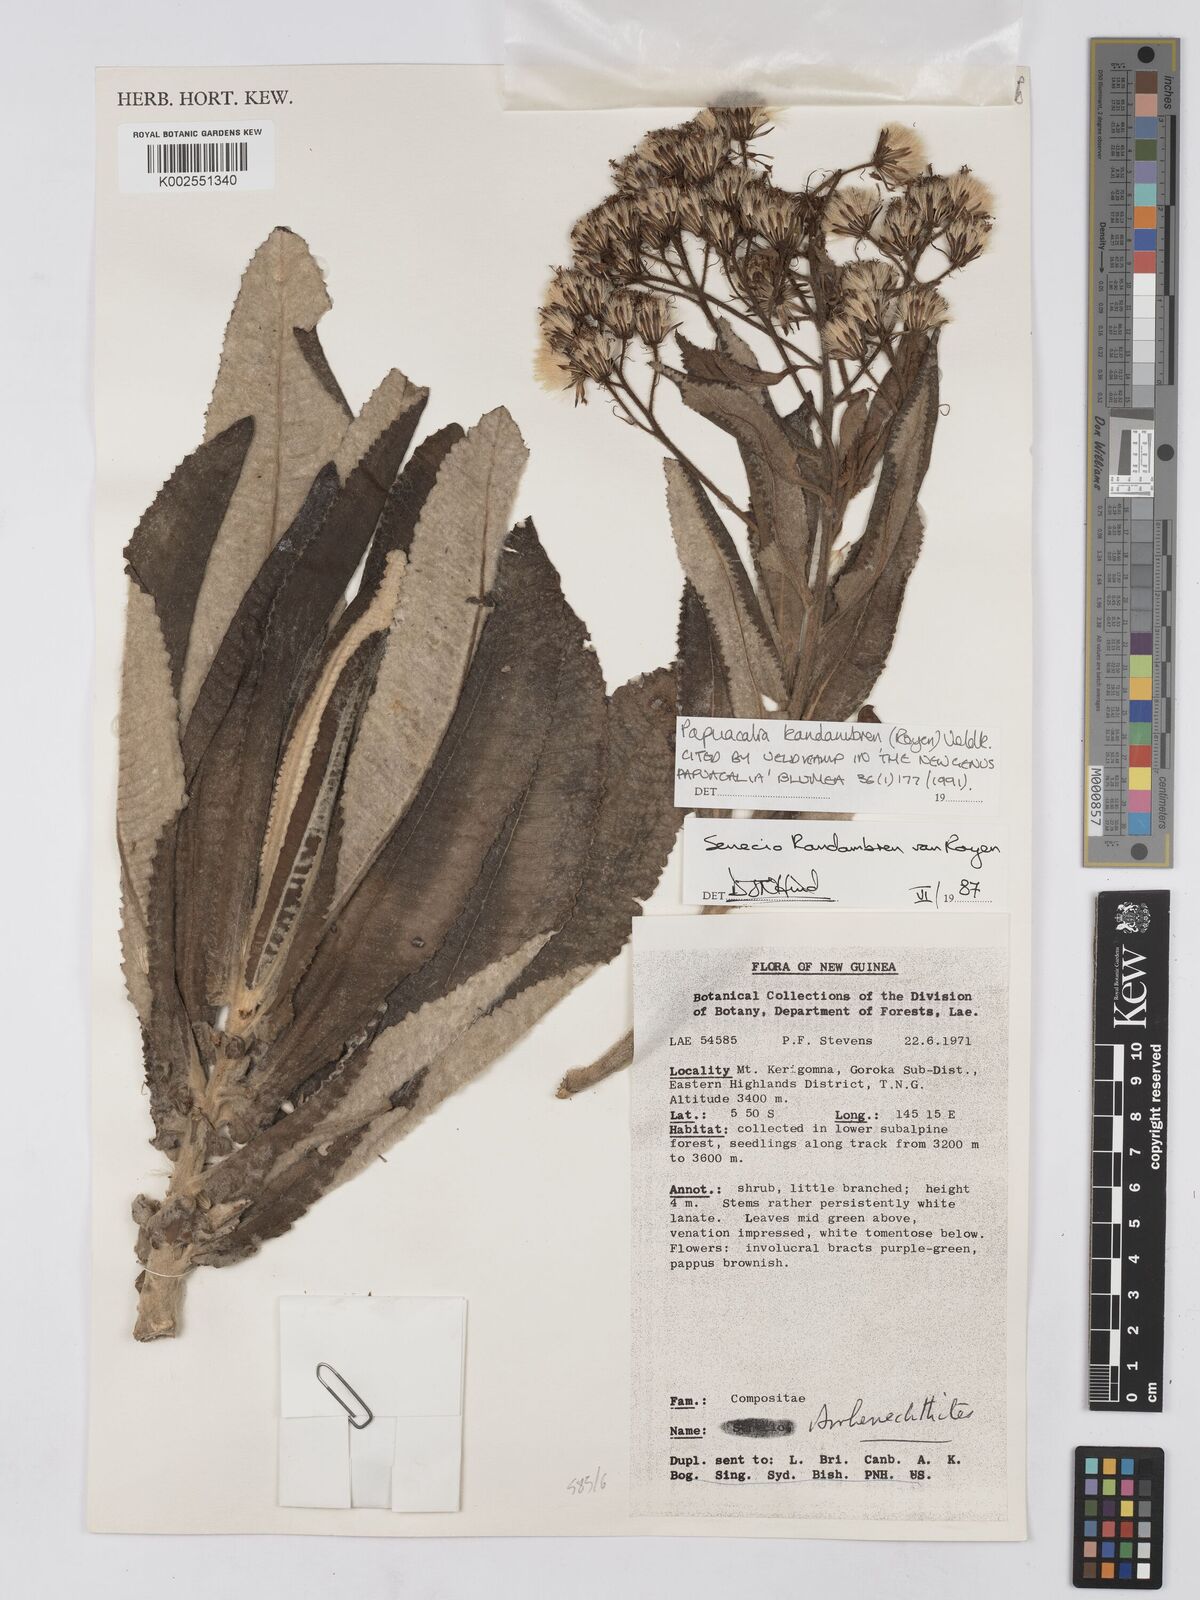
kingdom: Plantae
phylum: Tracheophyta
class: Magnoliopsida
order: Asterales
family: Asteraceae
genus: Papuacalia
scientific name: Papuacalia kandambren
